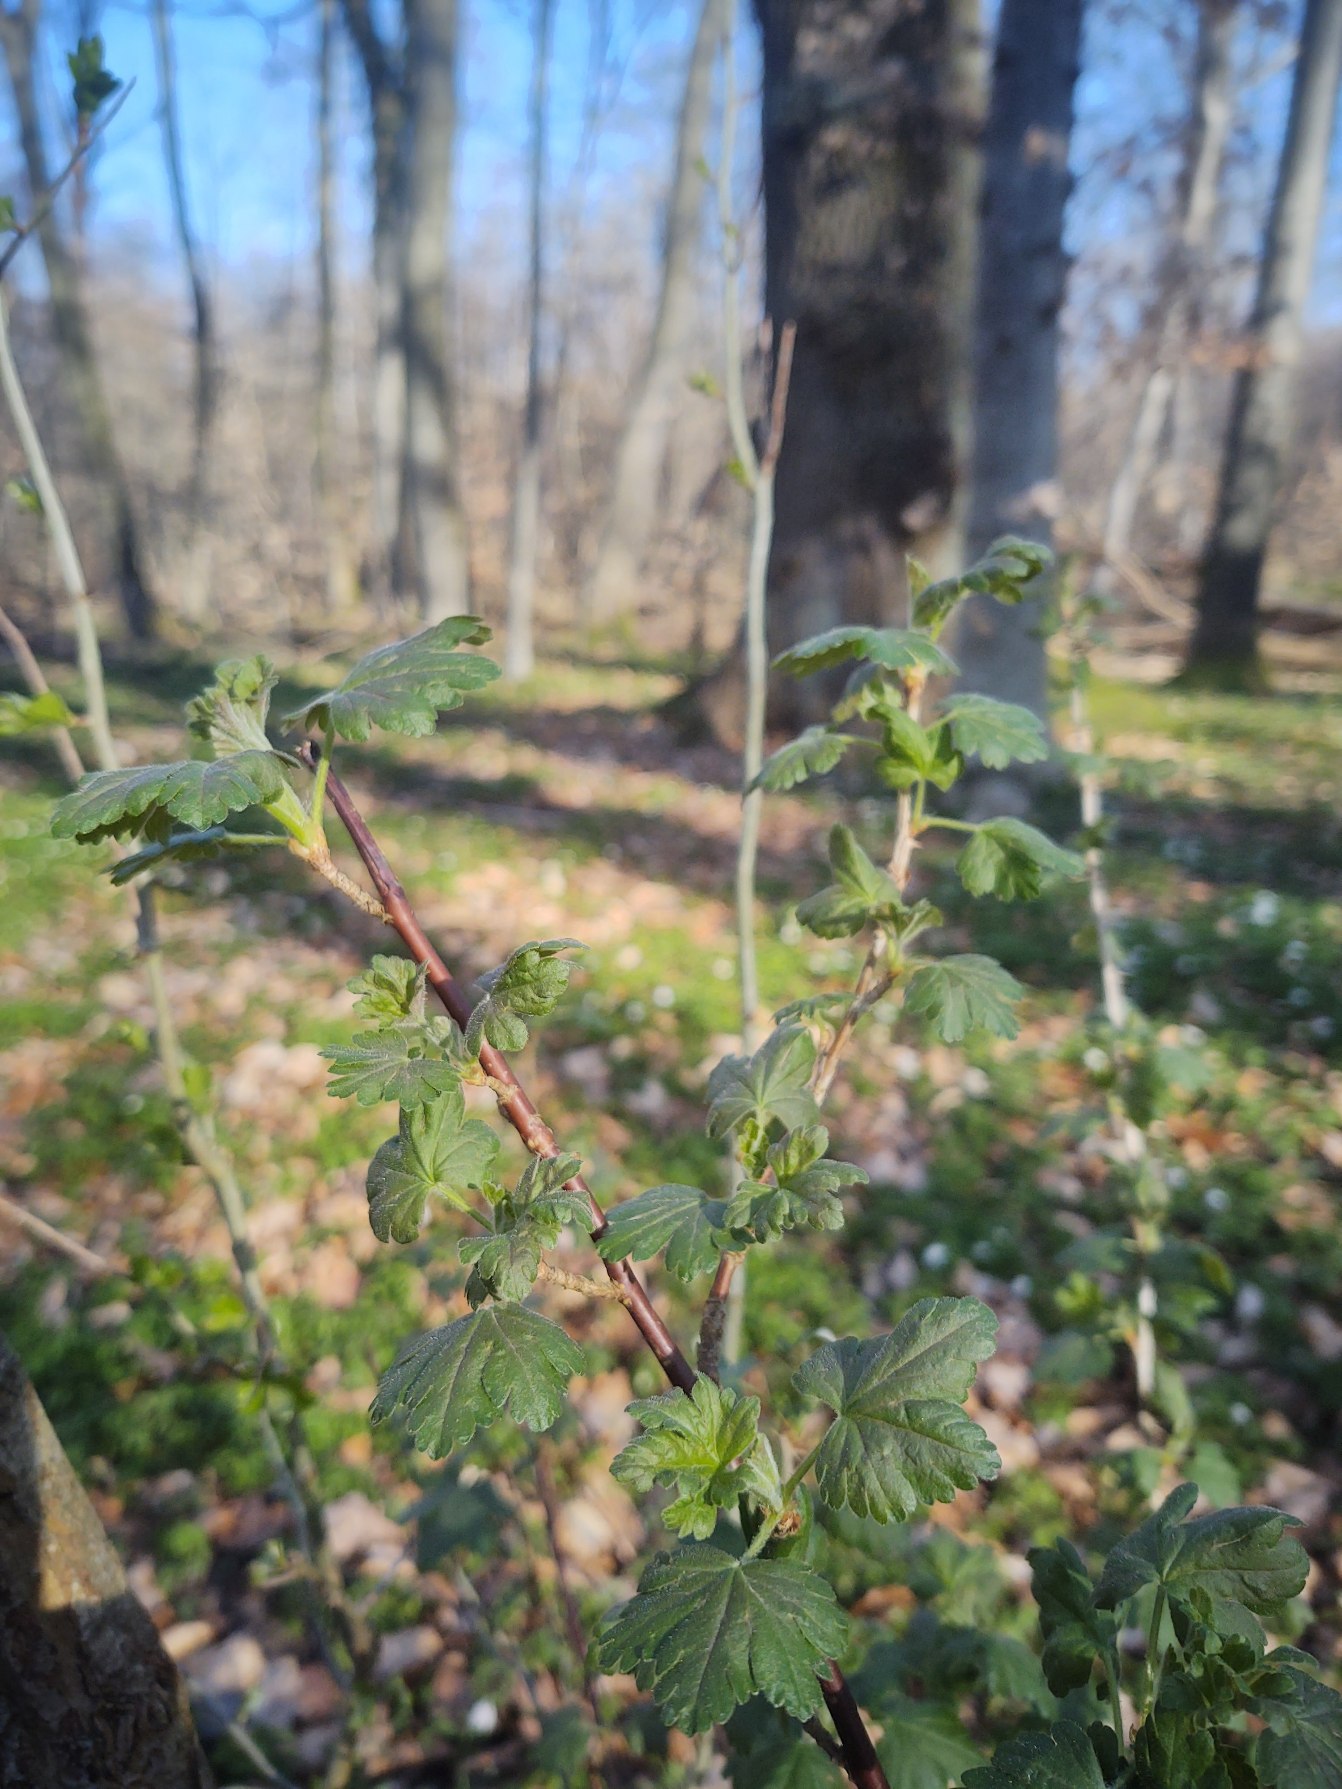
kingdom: Plantae
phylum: Tracheophyta
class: Magnoliopsida
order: Saxifragales
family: Grossulariaceae
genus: Ribes
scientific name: Ribes uva-crispa
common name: Stikkelsbær
